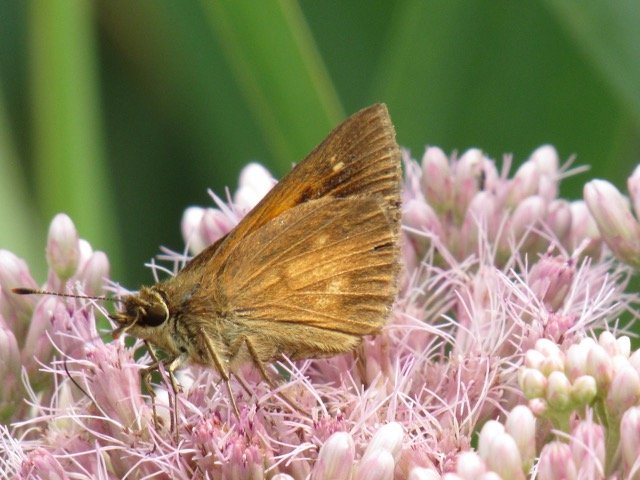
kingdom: Animalia
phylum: Arthropoda
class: Insecta
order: Lepidoptera
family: Hesperiidae
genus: Poanes
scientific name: Poanes viator
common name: Broad-winged Skipper
